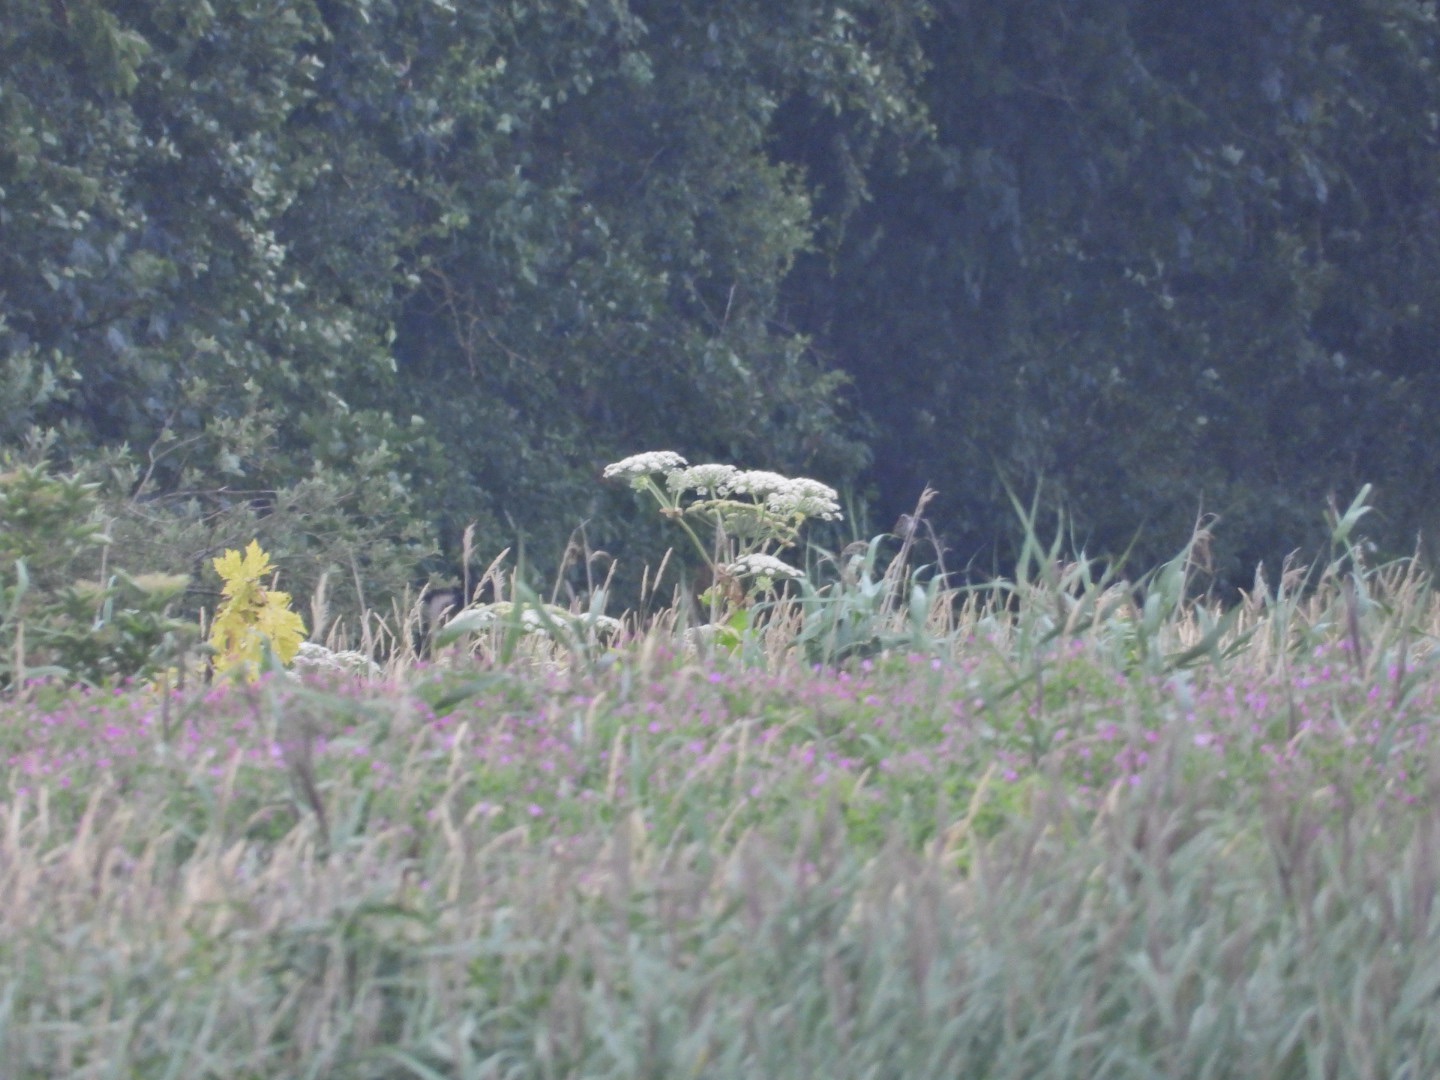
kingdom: Plantae
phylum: Tracheophyta
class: Magnoliopsida
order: Apiales
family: Apiaceae
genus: Heracleum
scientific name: Heracleum mantegazzianum
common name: Kæmpe-bjørneklo
